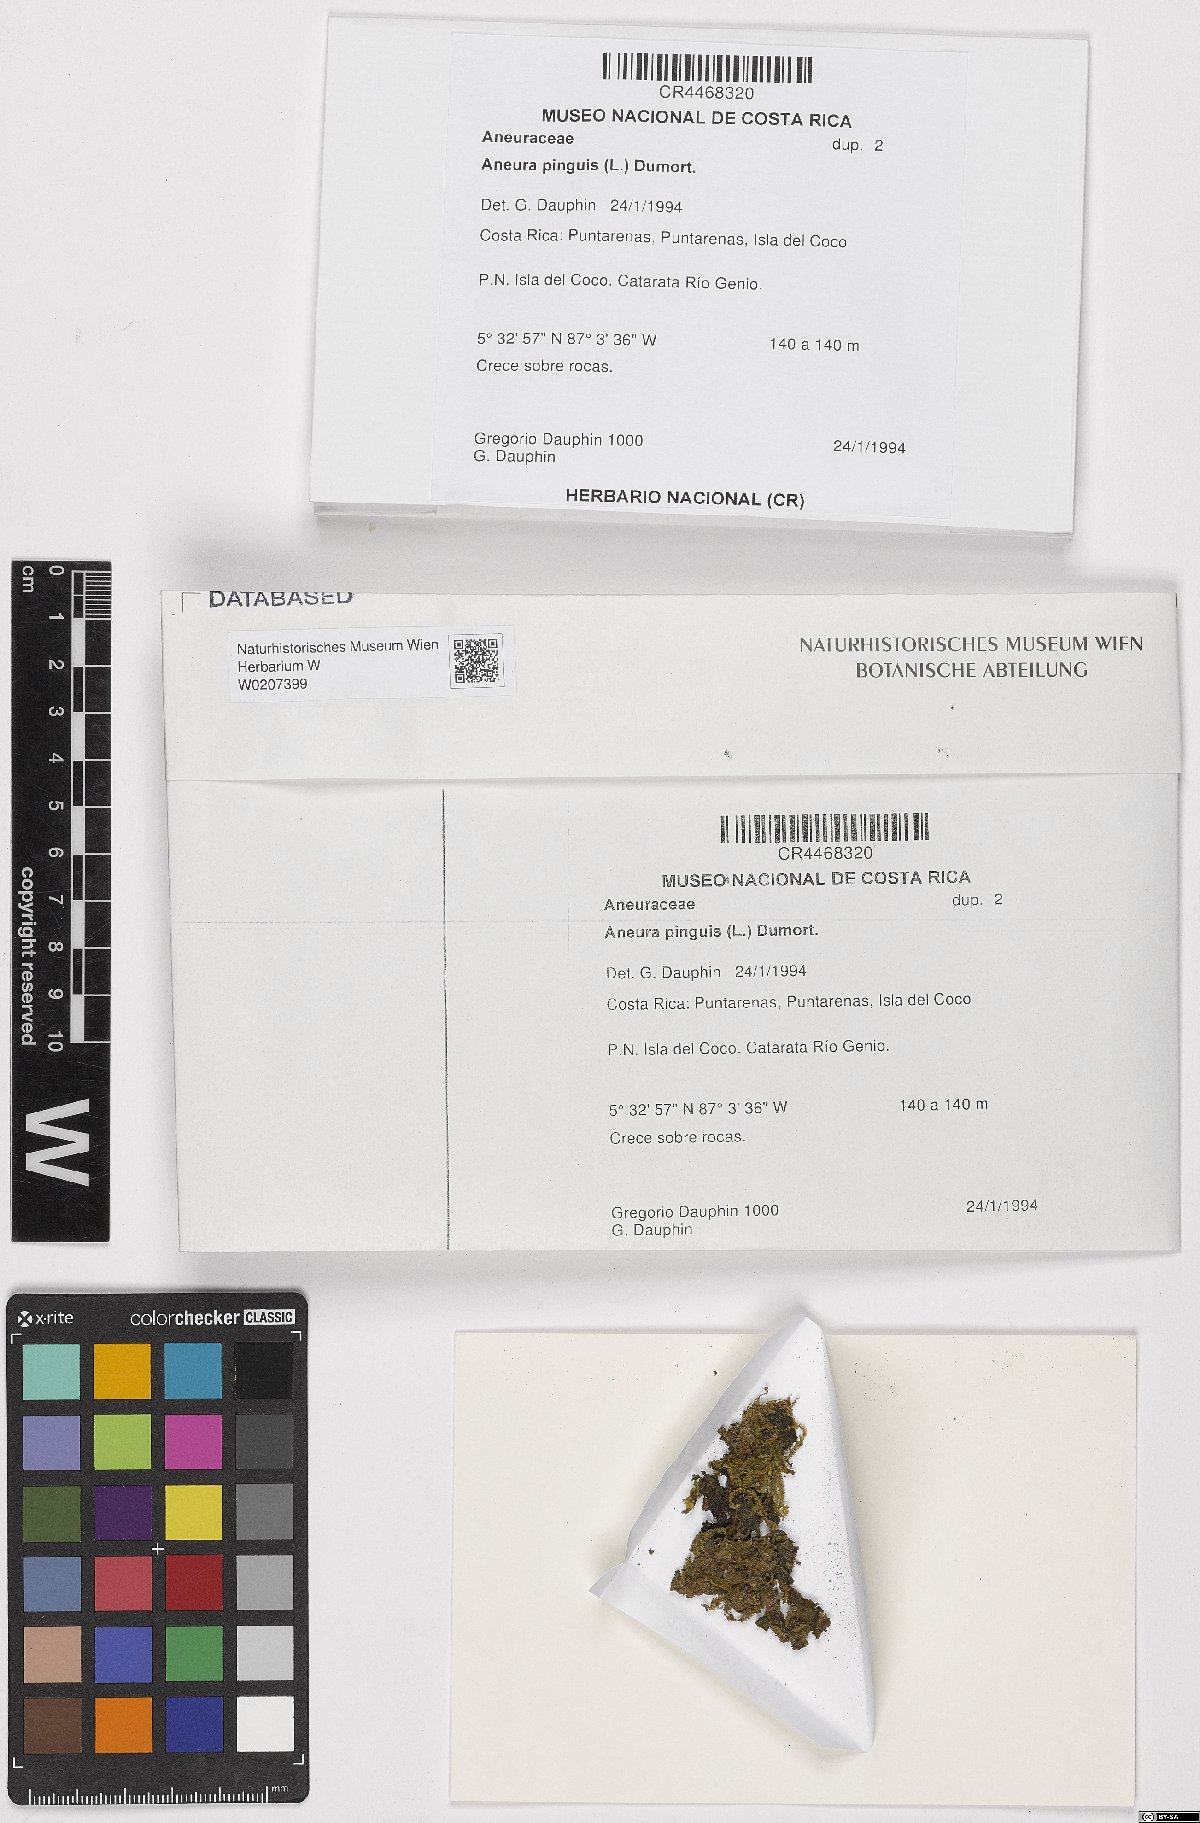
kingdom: Plantae
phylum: Marchantiophyta
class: Jungermanniopsida
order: Metzgeriales
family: Aneuraceae
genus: Aneura
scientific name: Aneura pinguis
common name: Common greasewort
